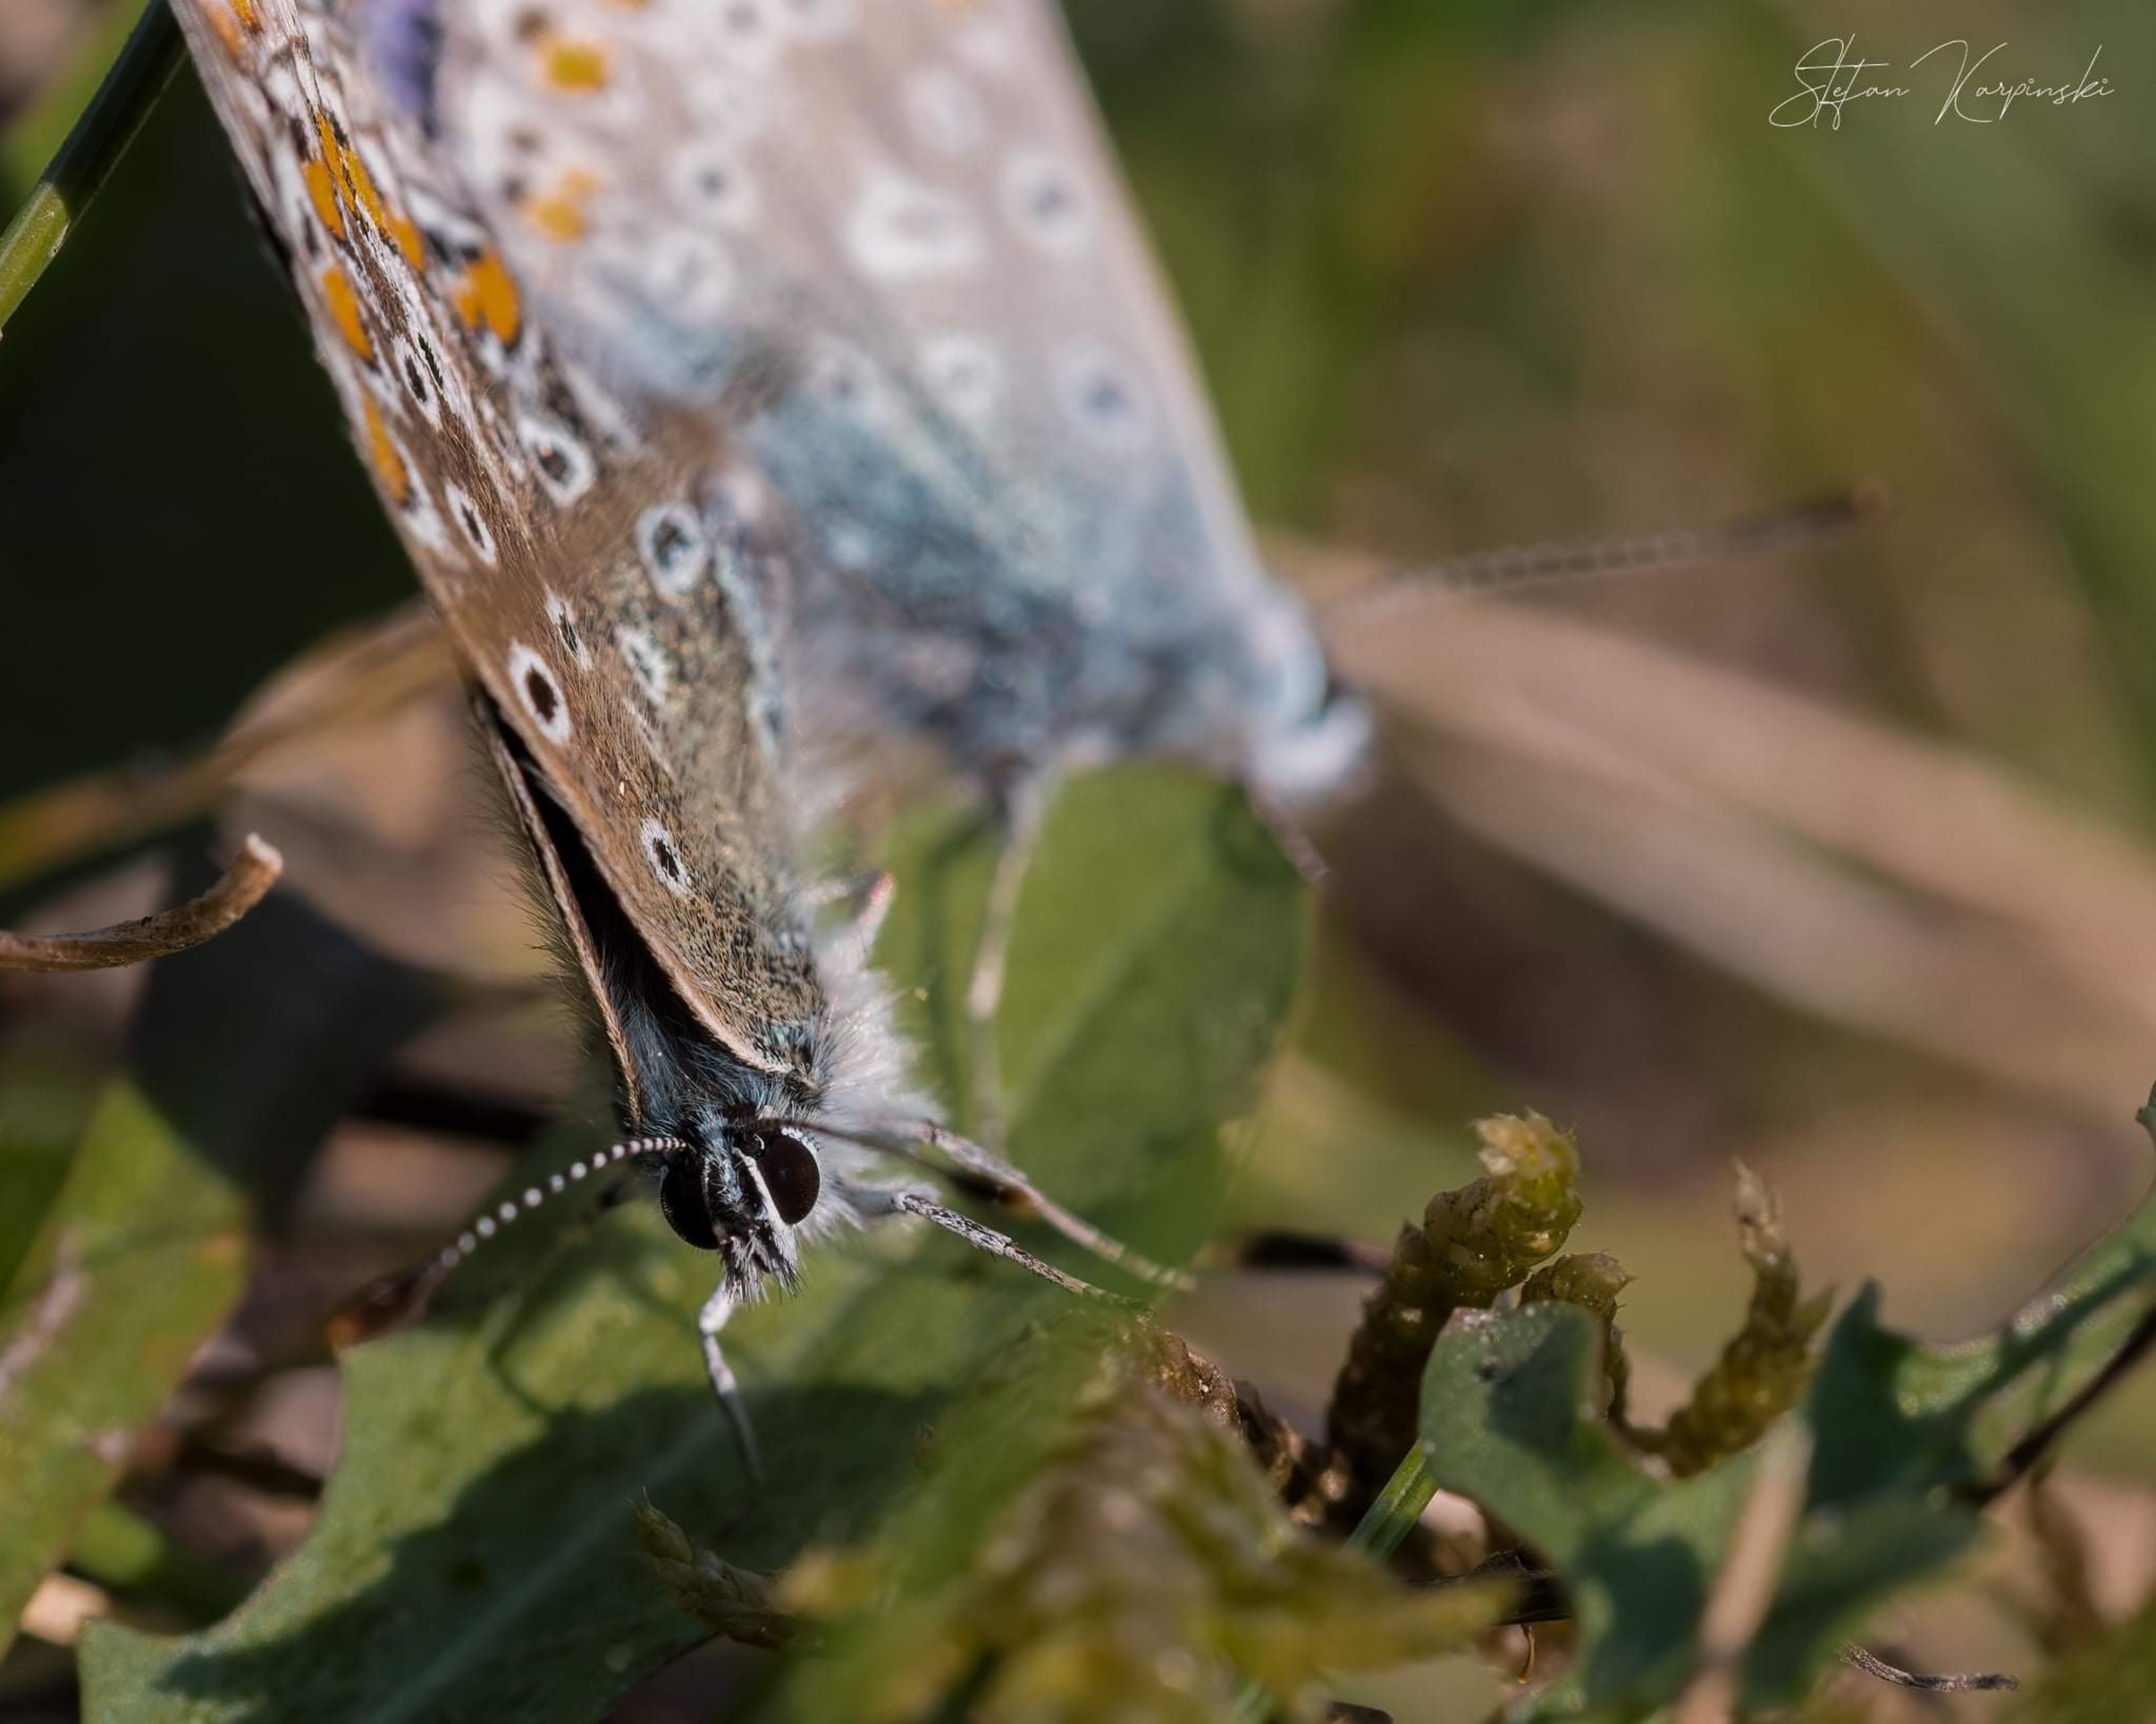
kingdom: Animalia
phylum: Arthropoda
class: Insecta
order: Lepidoptera
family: Lycaenidae
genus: Polyommatus
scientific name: Polyommatus icarus
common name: Almindelig blåfugl
